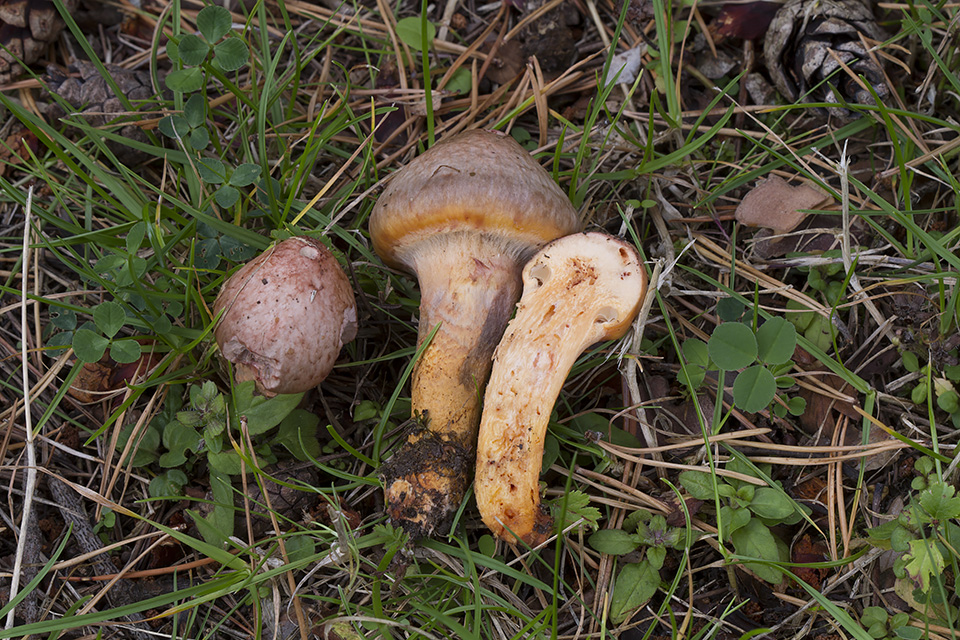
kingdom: Fungi
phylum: Basidiomycota
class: Agaricomycetes
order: Boletales
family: Gomphidiaceae
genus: Chroogomphus
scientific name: Chroogomphus rutilus
